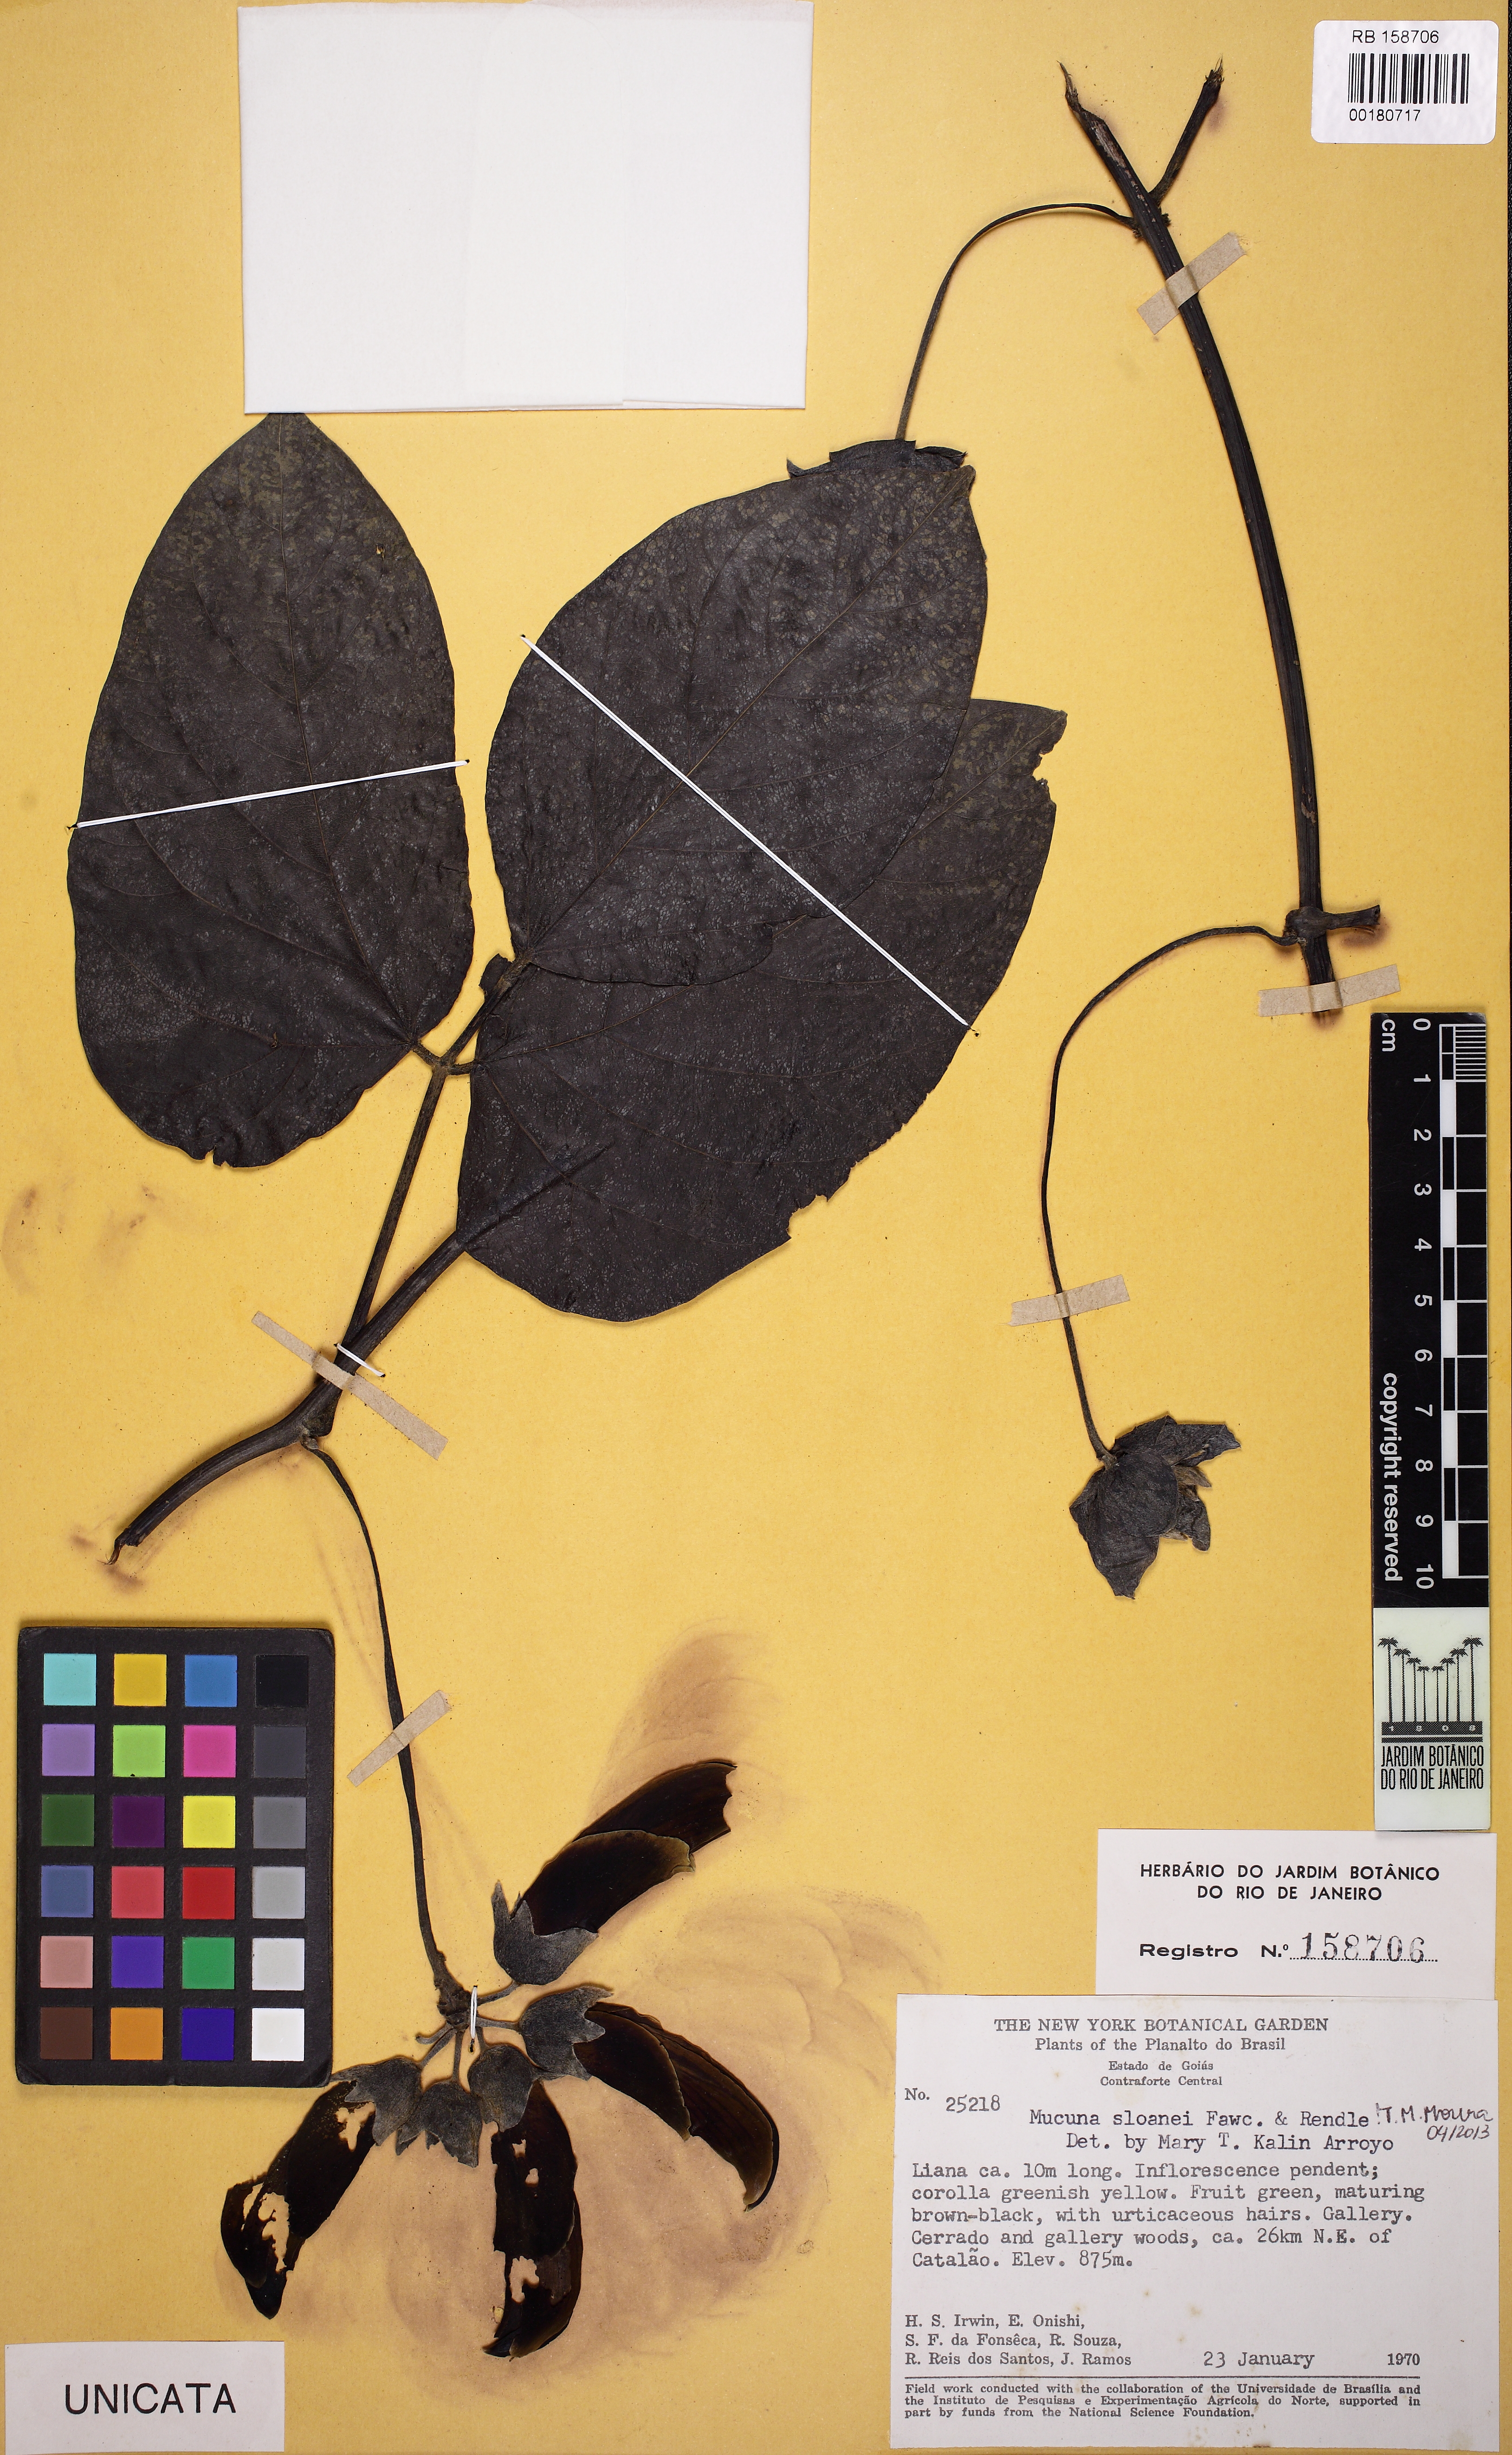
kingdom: Plantae
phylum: Tracheophyta
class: Magnoliopsida
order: Fabales
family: Fabaceae
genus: Mucuna
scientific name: Mucuna sloanei
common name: Horse-eye bean
